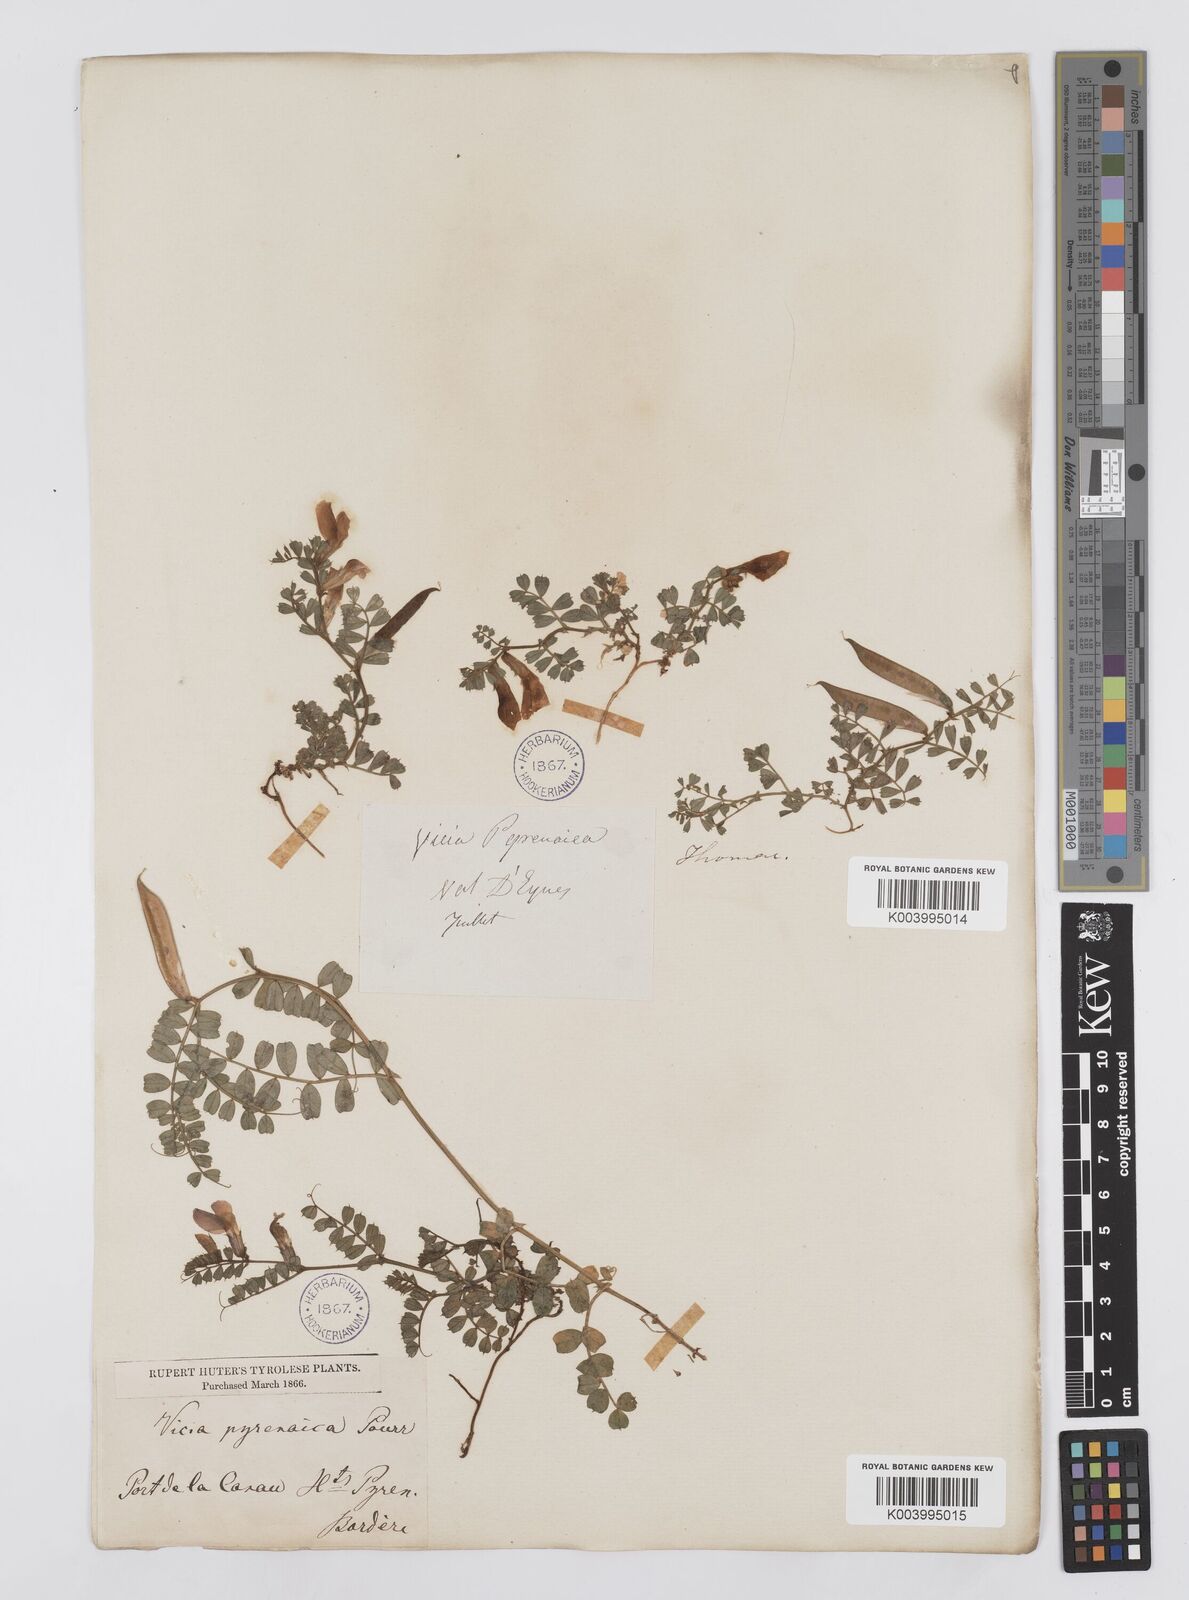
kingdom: Plantae
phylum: Tracheophyta
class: Magnoliopsida
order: Fabales
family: Fabaceae
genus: Vicia
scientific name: Vicia pyrenaica
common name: Pyrenean vetch
